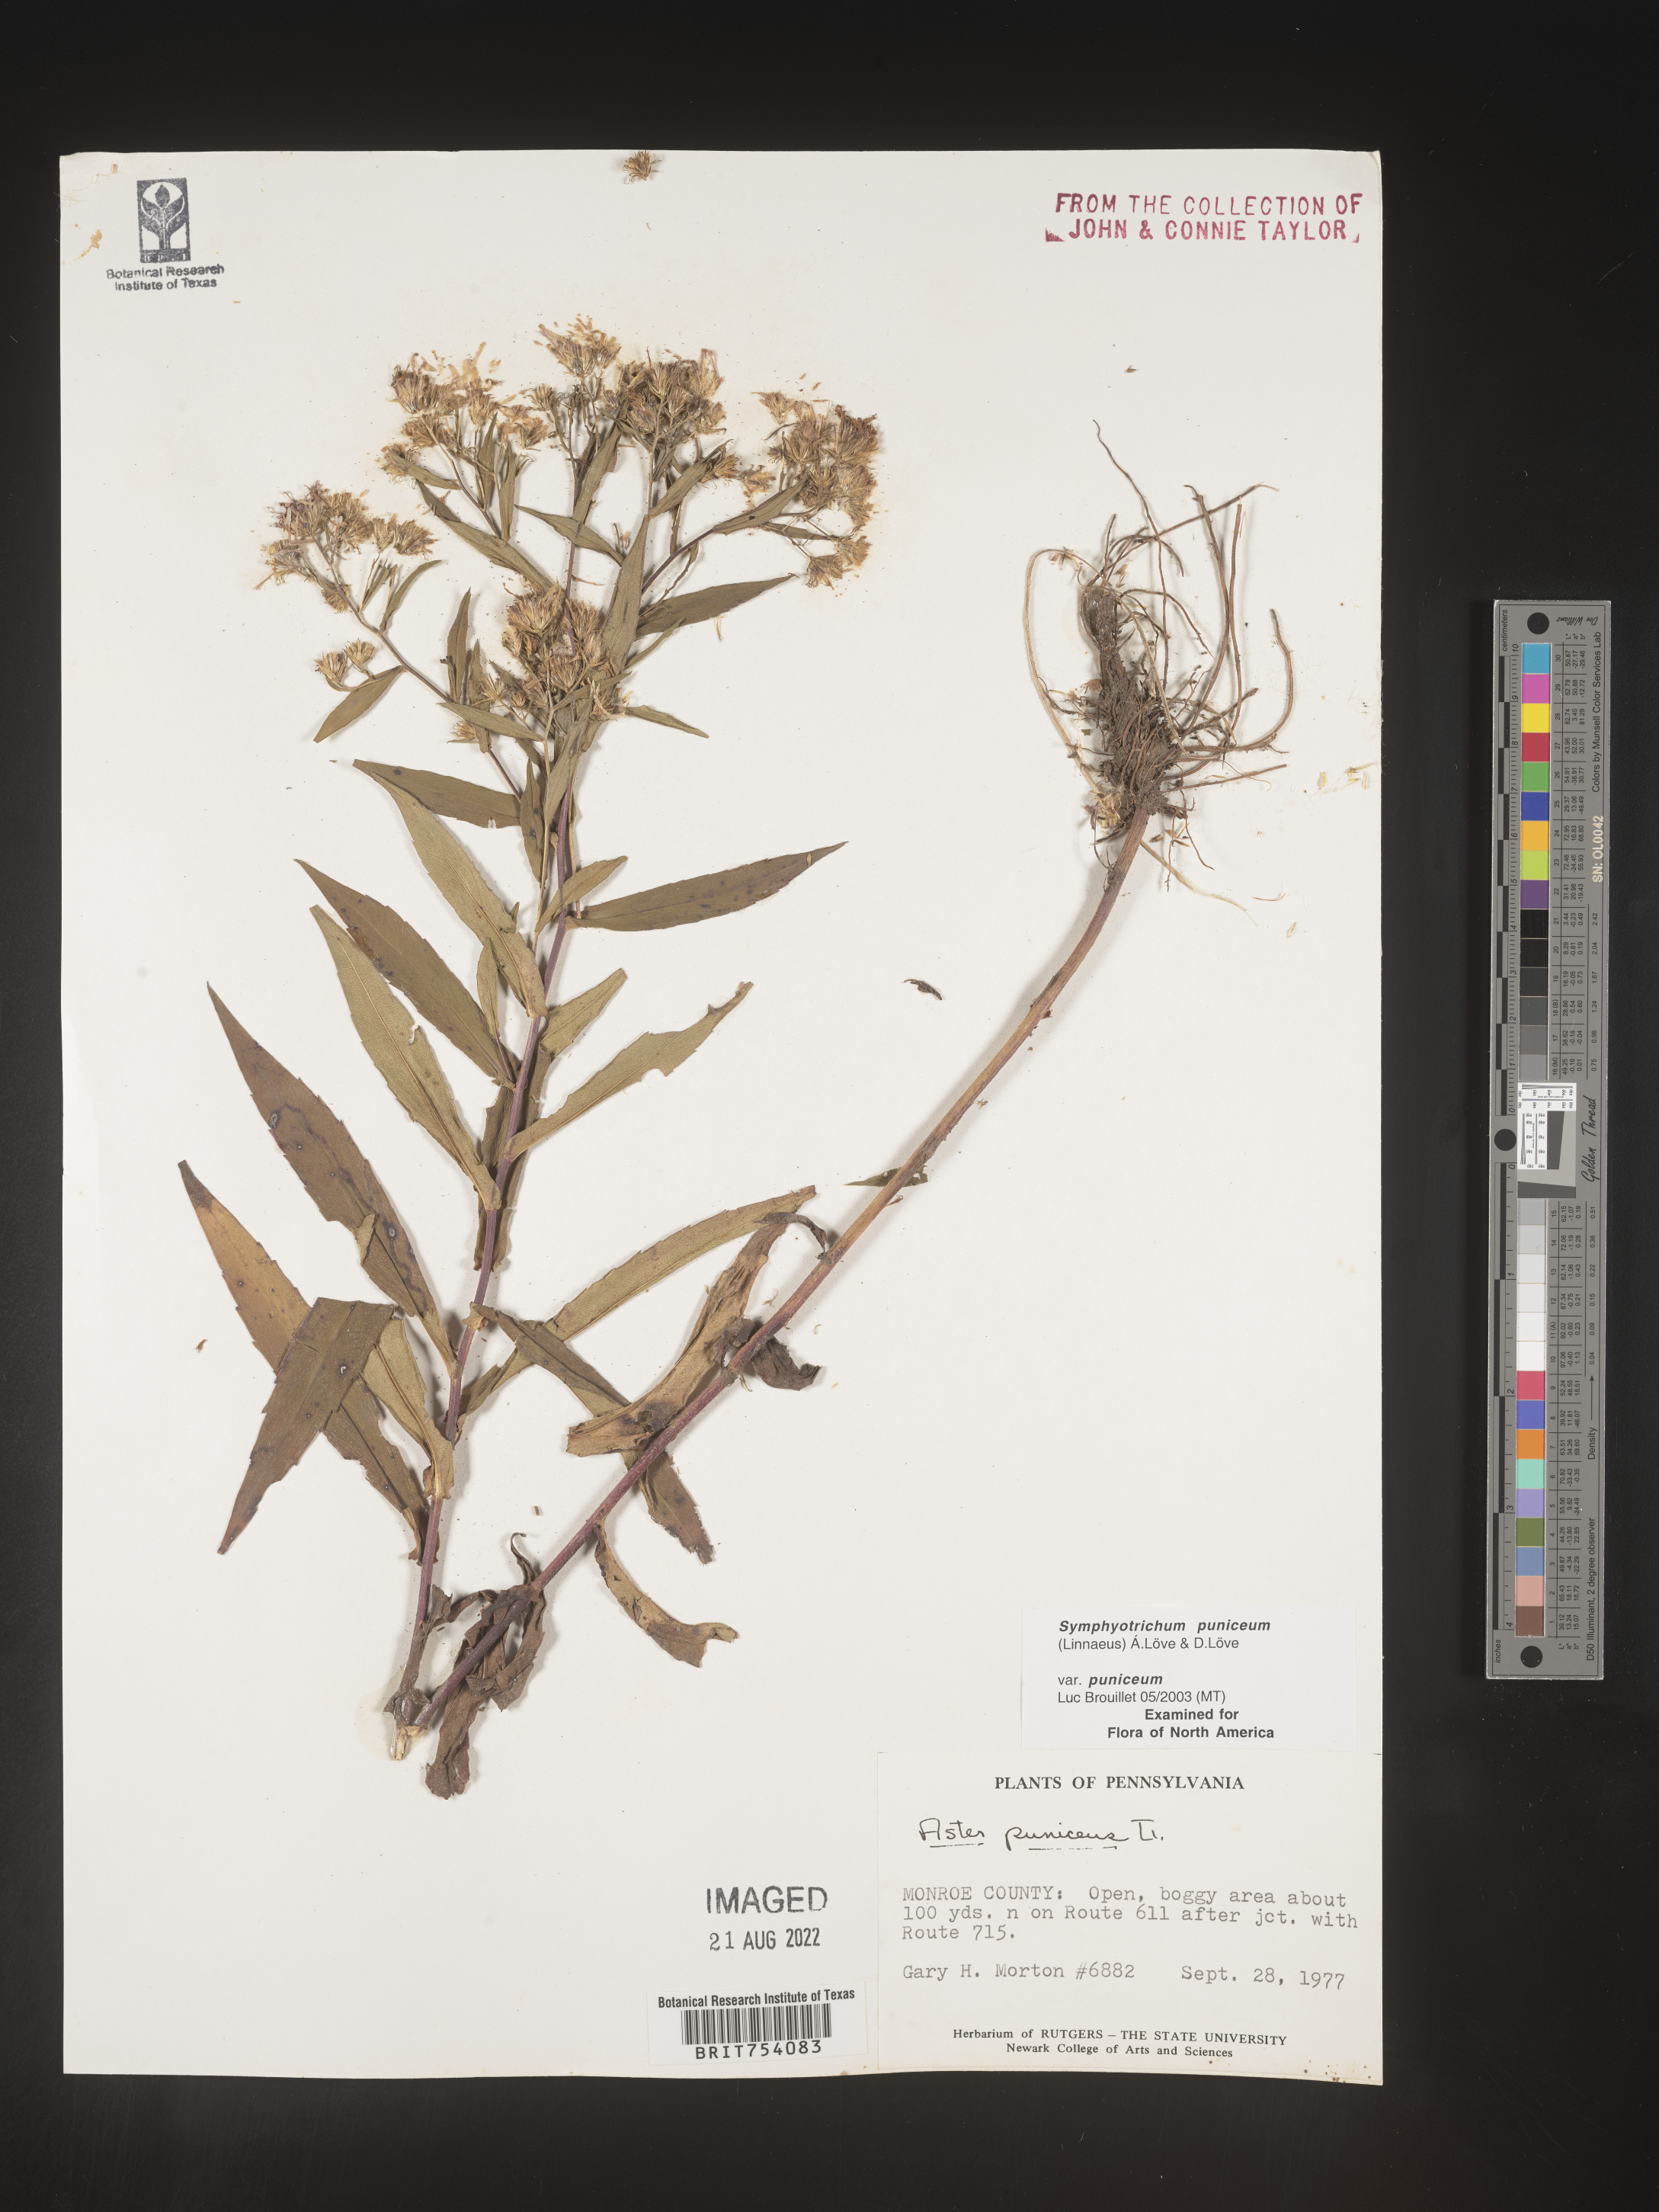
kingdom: Plantae
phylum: Tracheophyta
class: Magnoliopsida
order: Asterales
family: Asteraceae
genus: Symphyotrichum
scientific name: Symphyotrichum puniceum
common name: Bog aster
